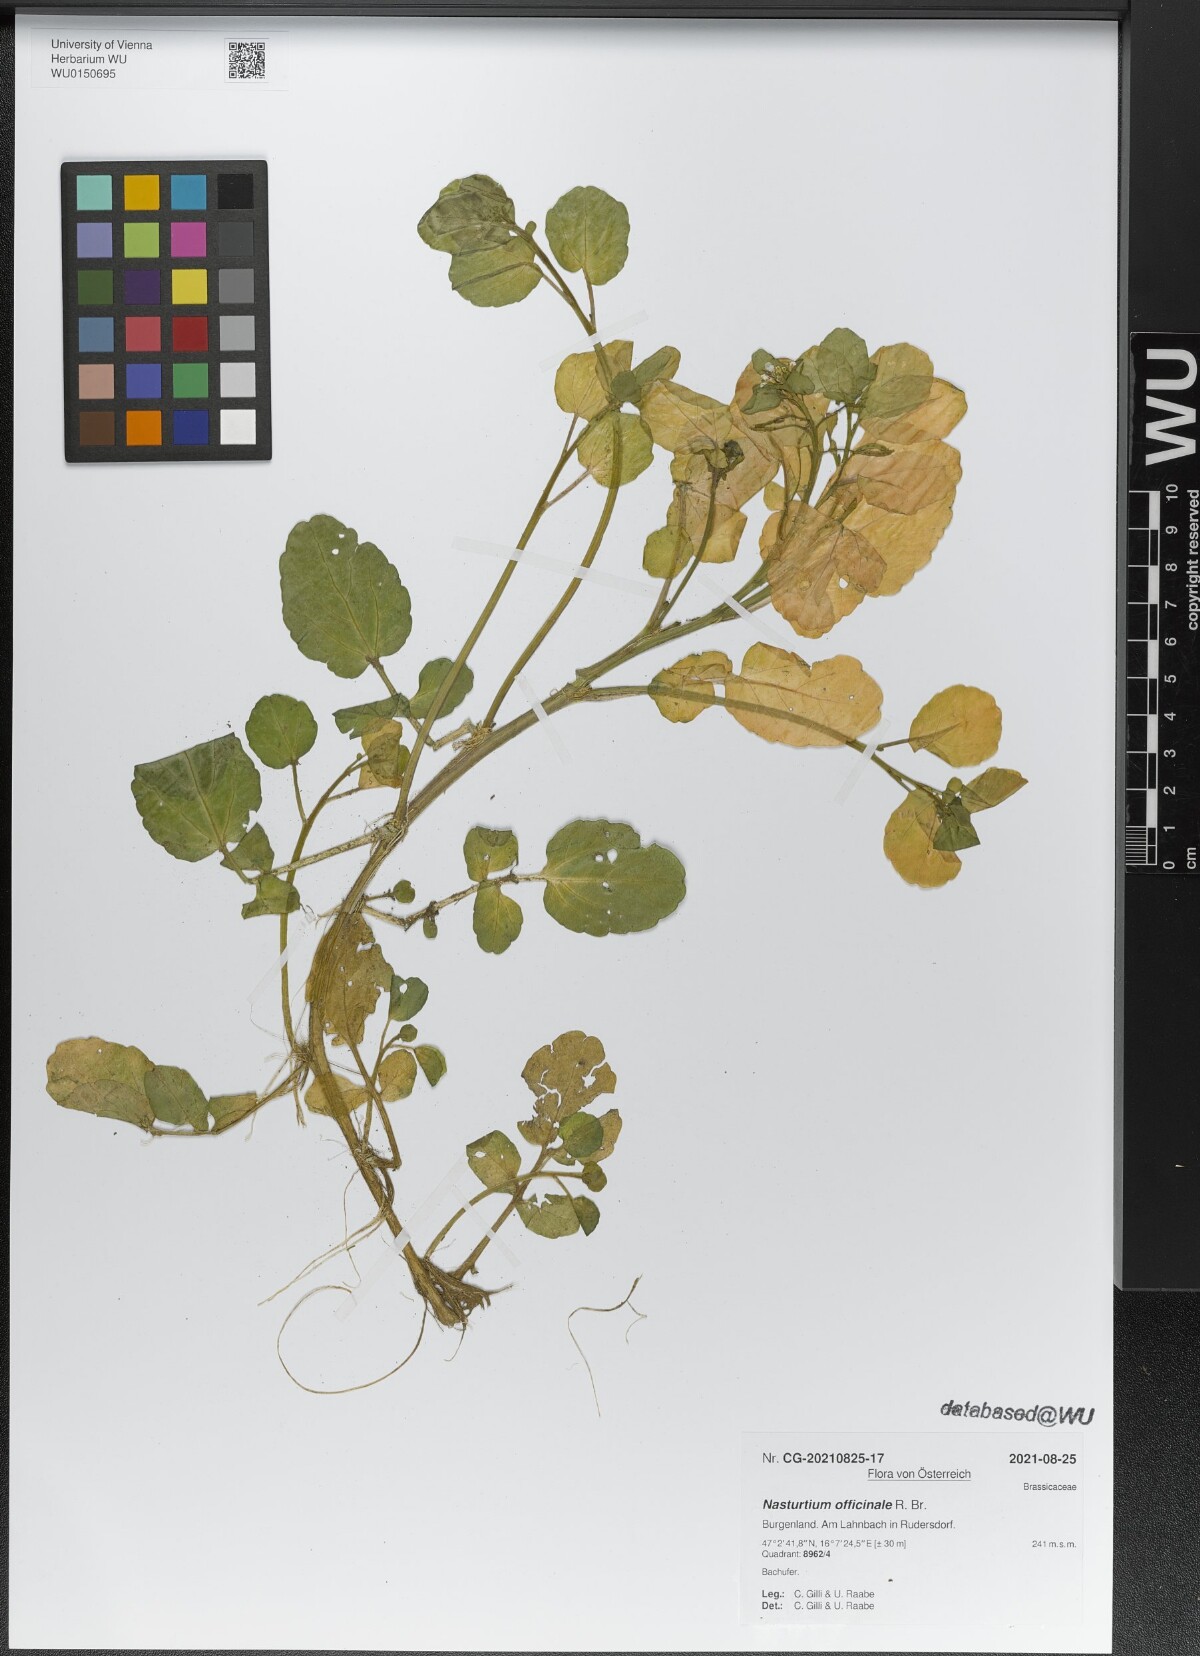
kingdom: Plantae
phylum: Tracheophyta
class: Magnoliopsida
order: Brassicales
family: Brassicaceae
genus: Nasturtium
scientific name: Nasturtium officinale
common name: Watercress
